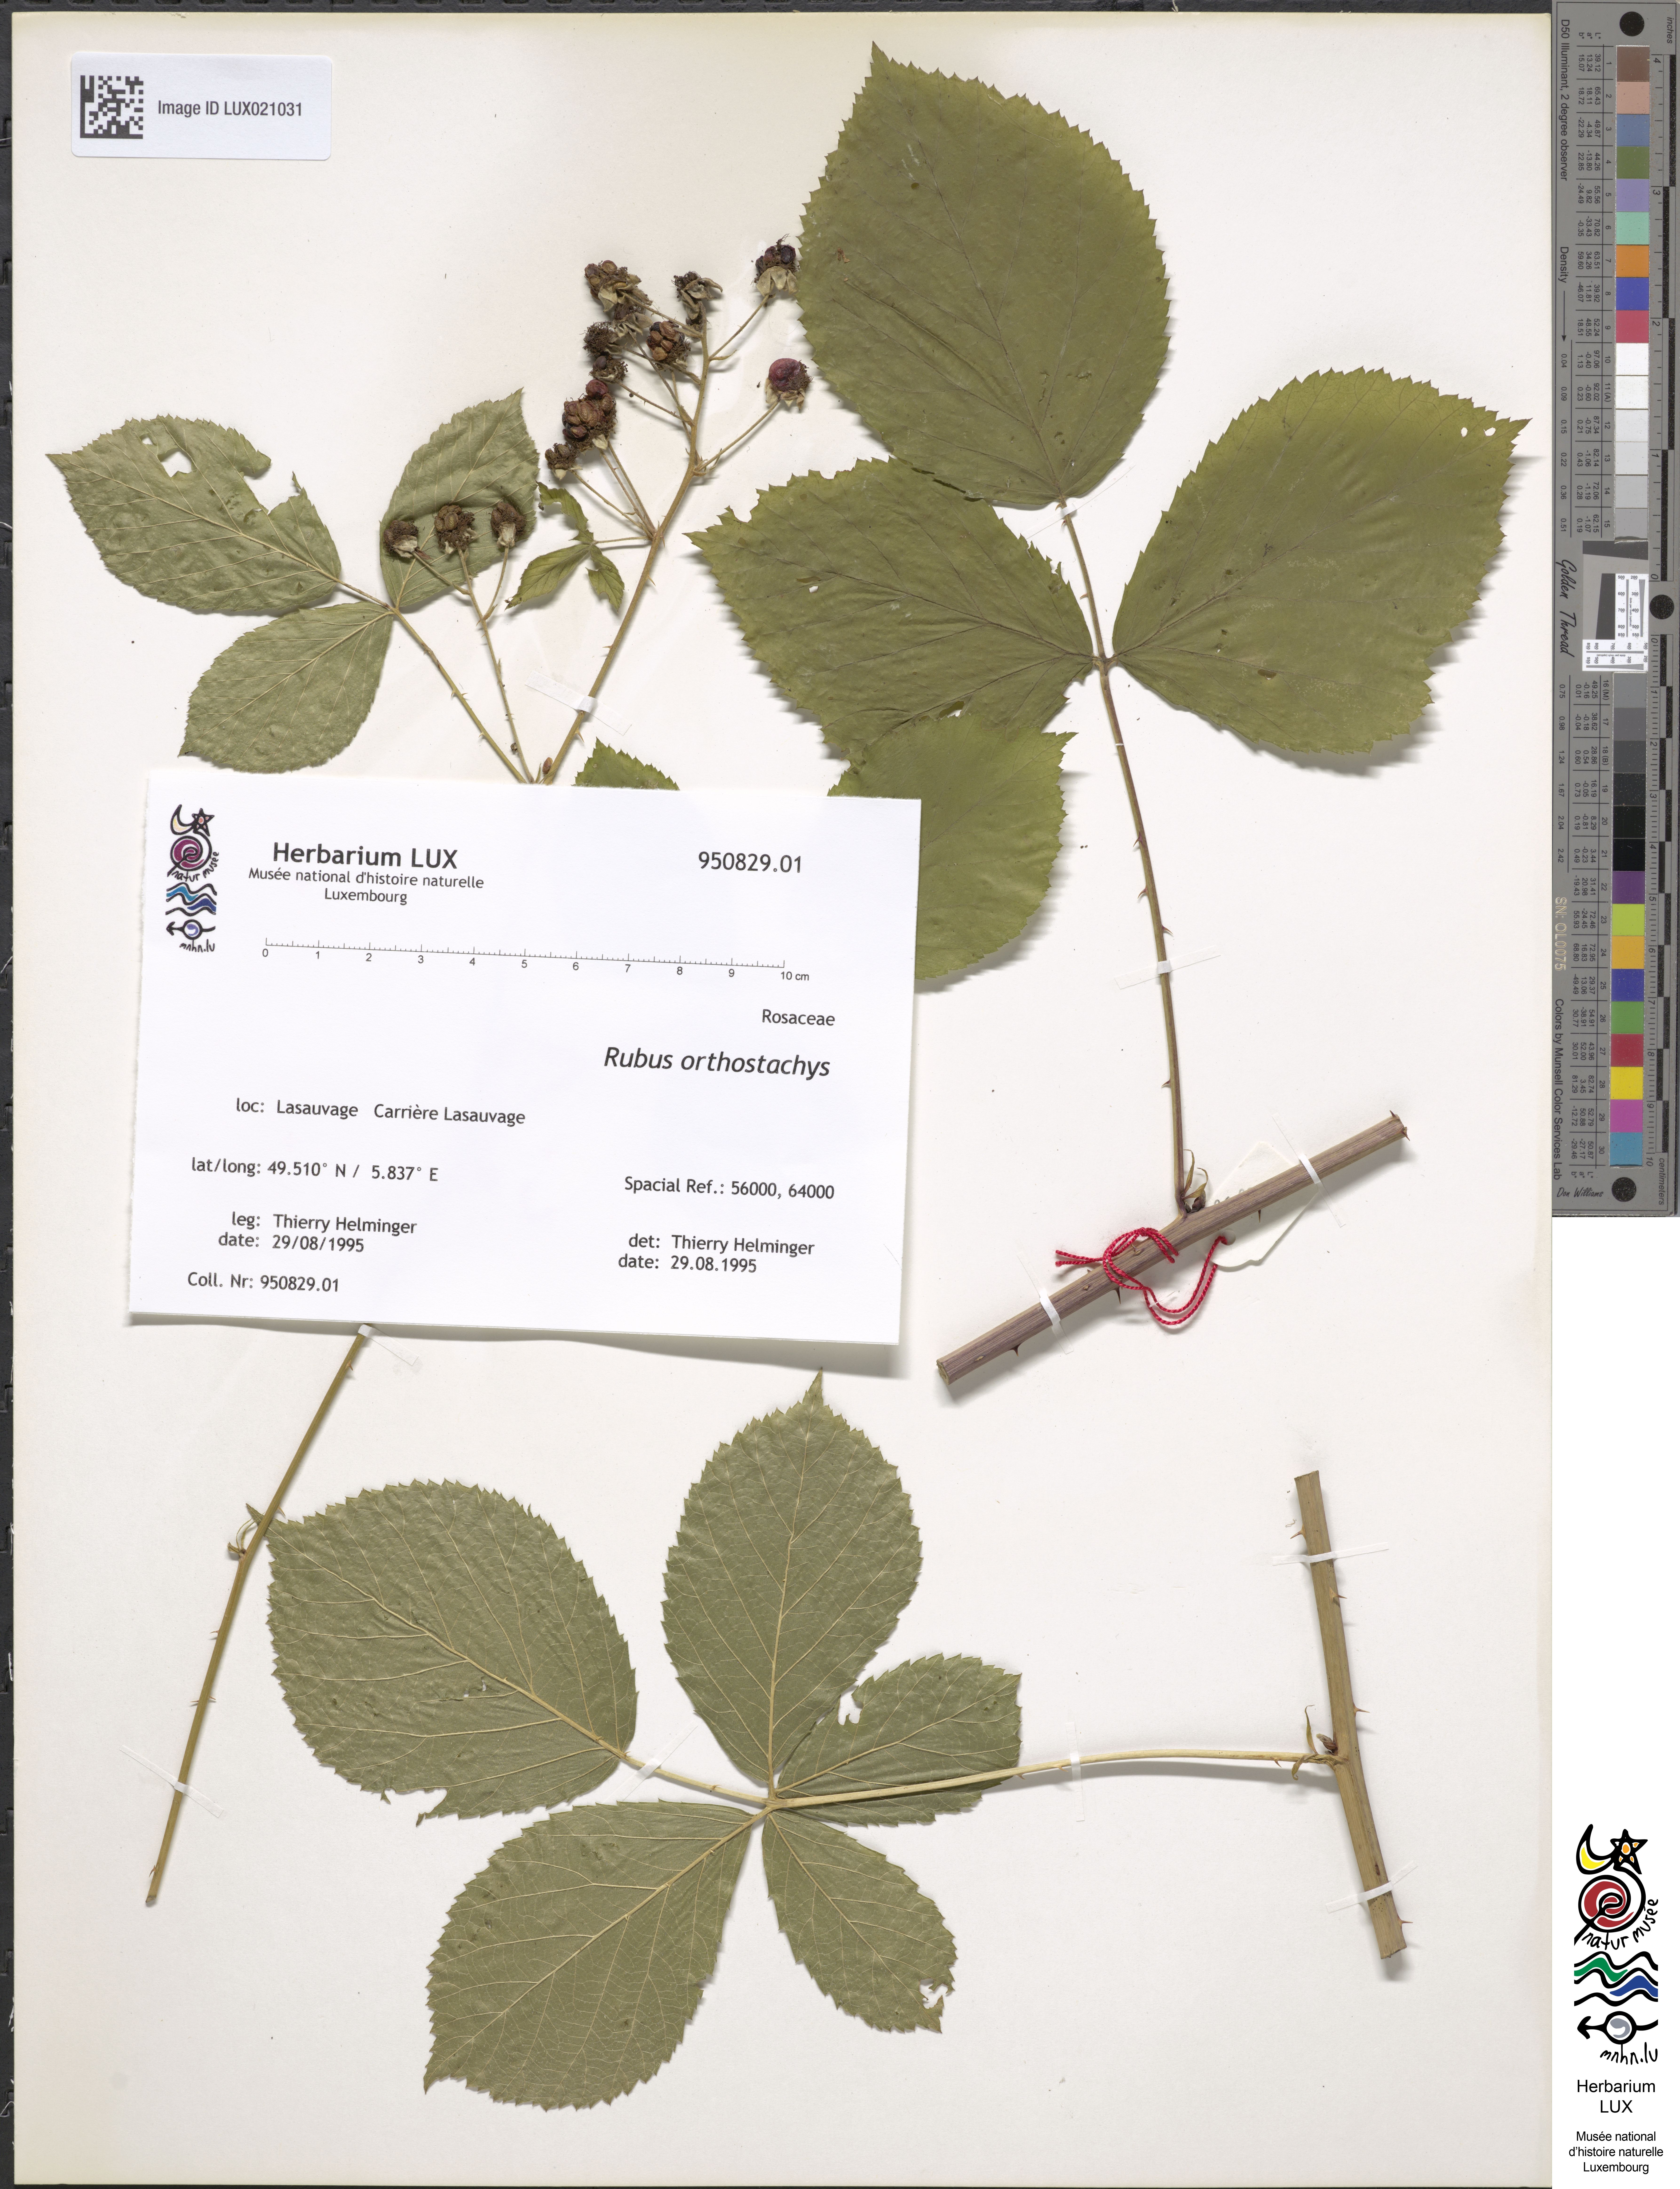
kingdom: Plantae
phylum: Tracheophyta
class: Magnoliopsida
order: Rosales
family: Rosaceae
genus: Rubus
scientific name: Rubus orthostachys
